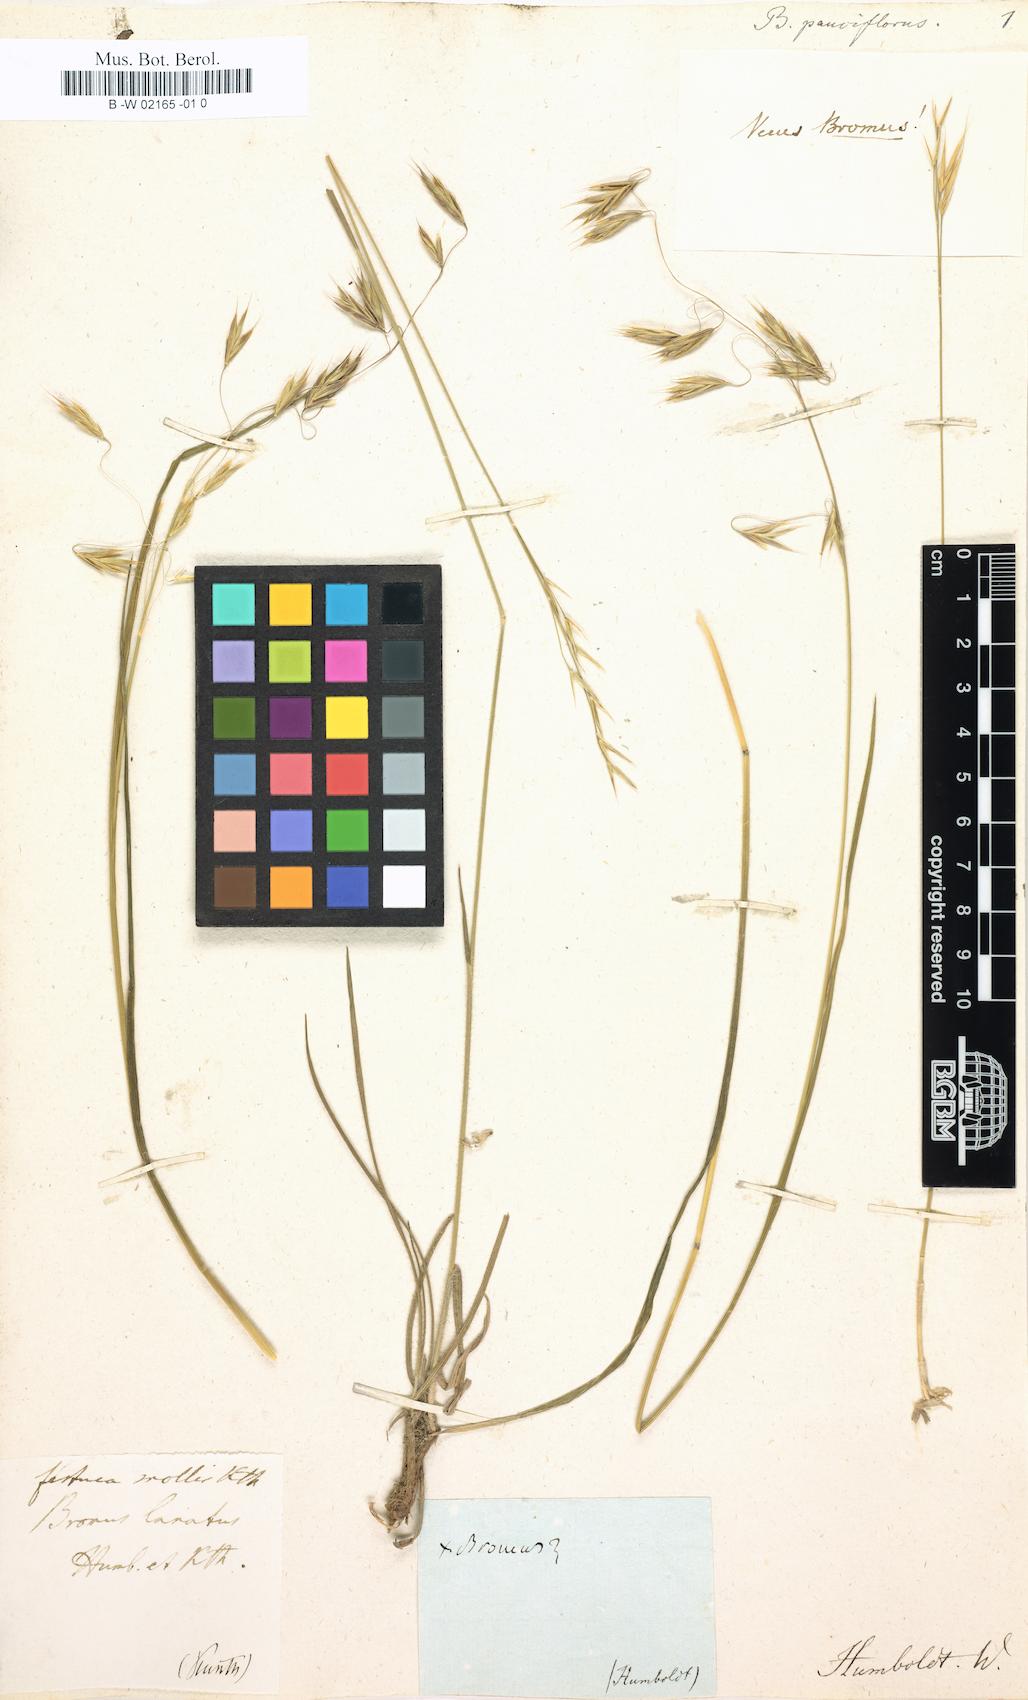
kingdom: Plantae
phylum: Tracheophyta
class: Liliopsida
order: Poales
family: Poaceae
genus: Bromus
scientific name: Bromus lanatus
